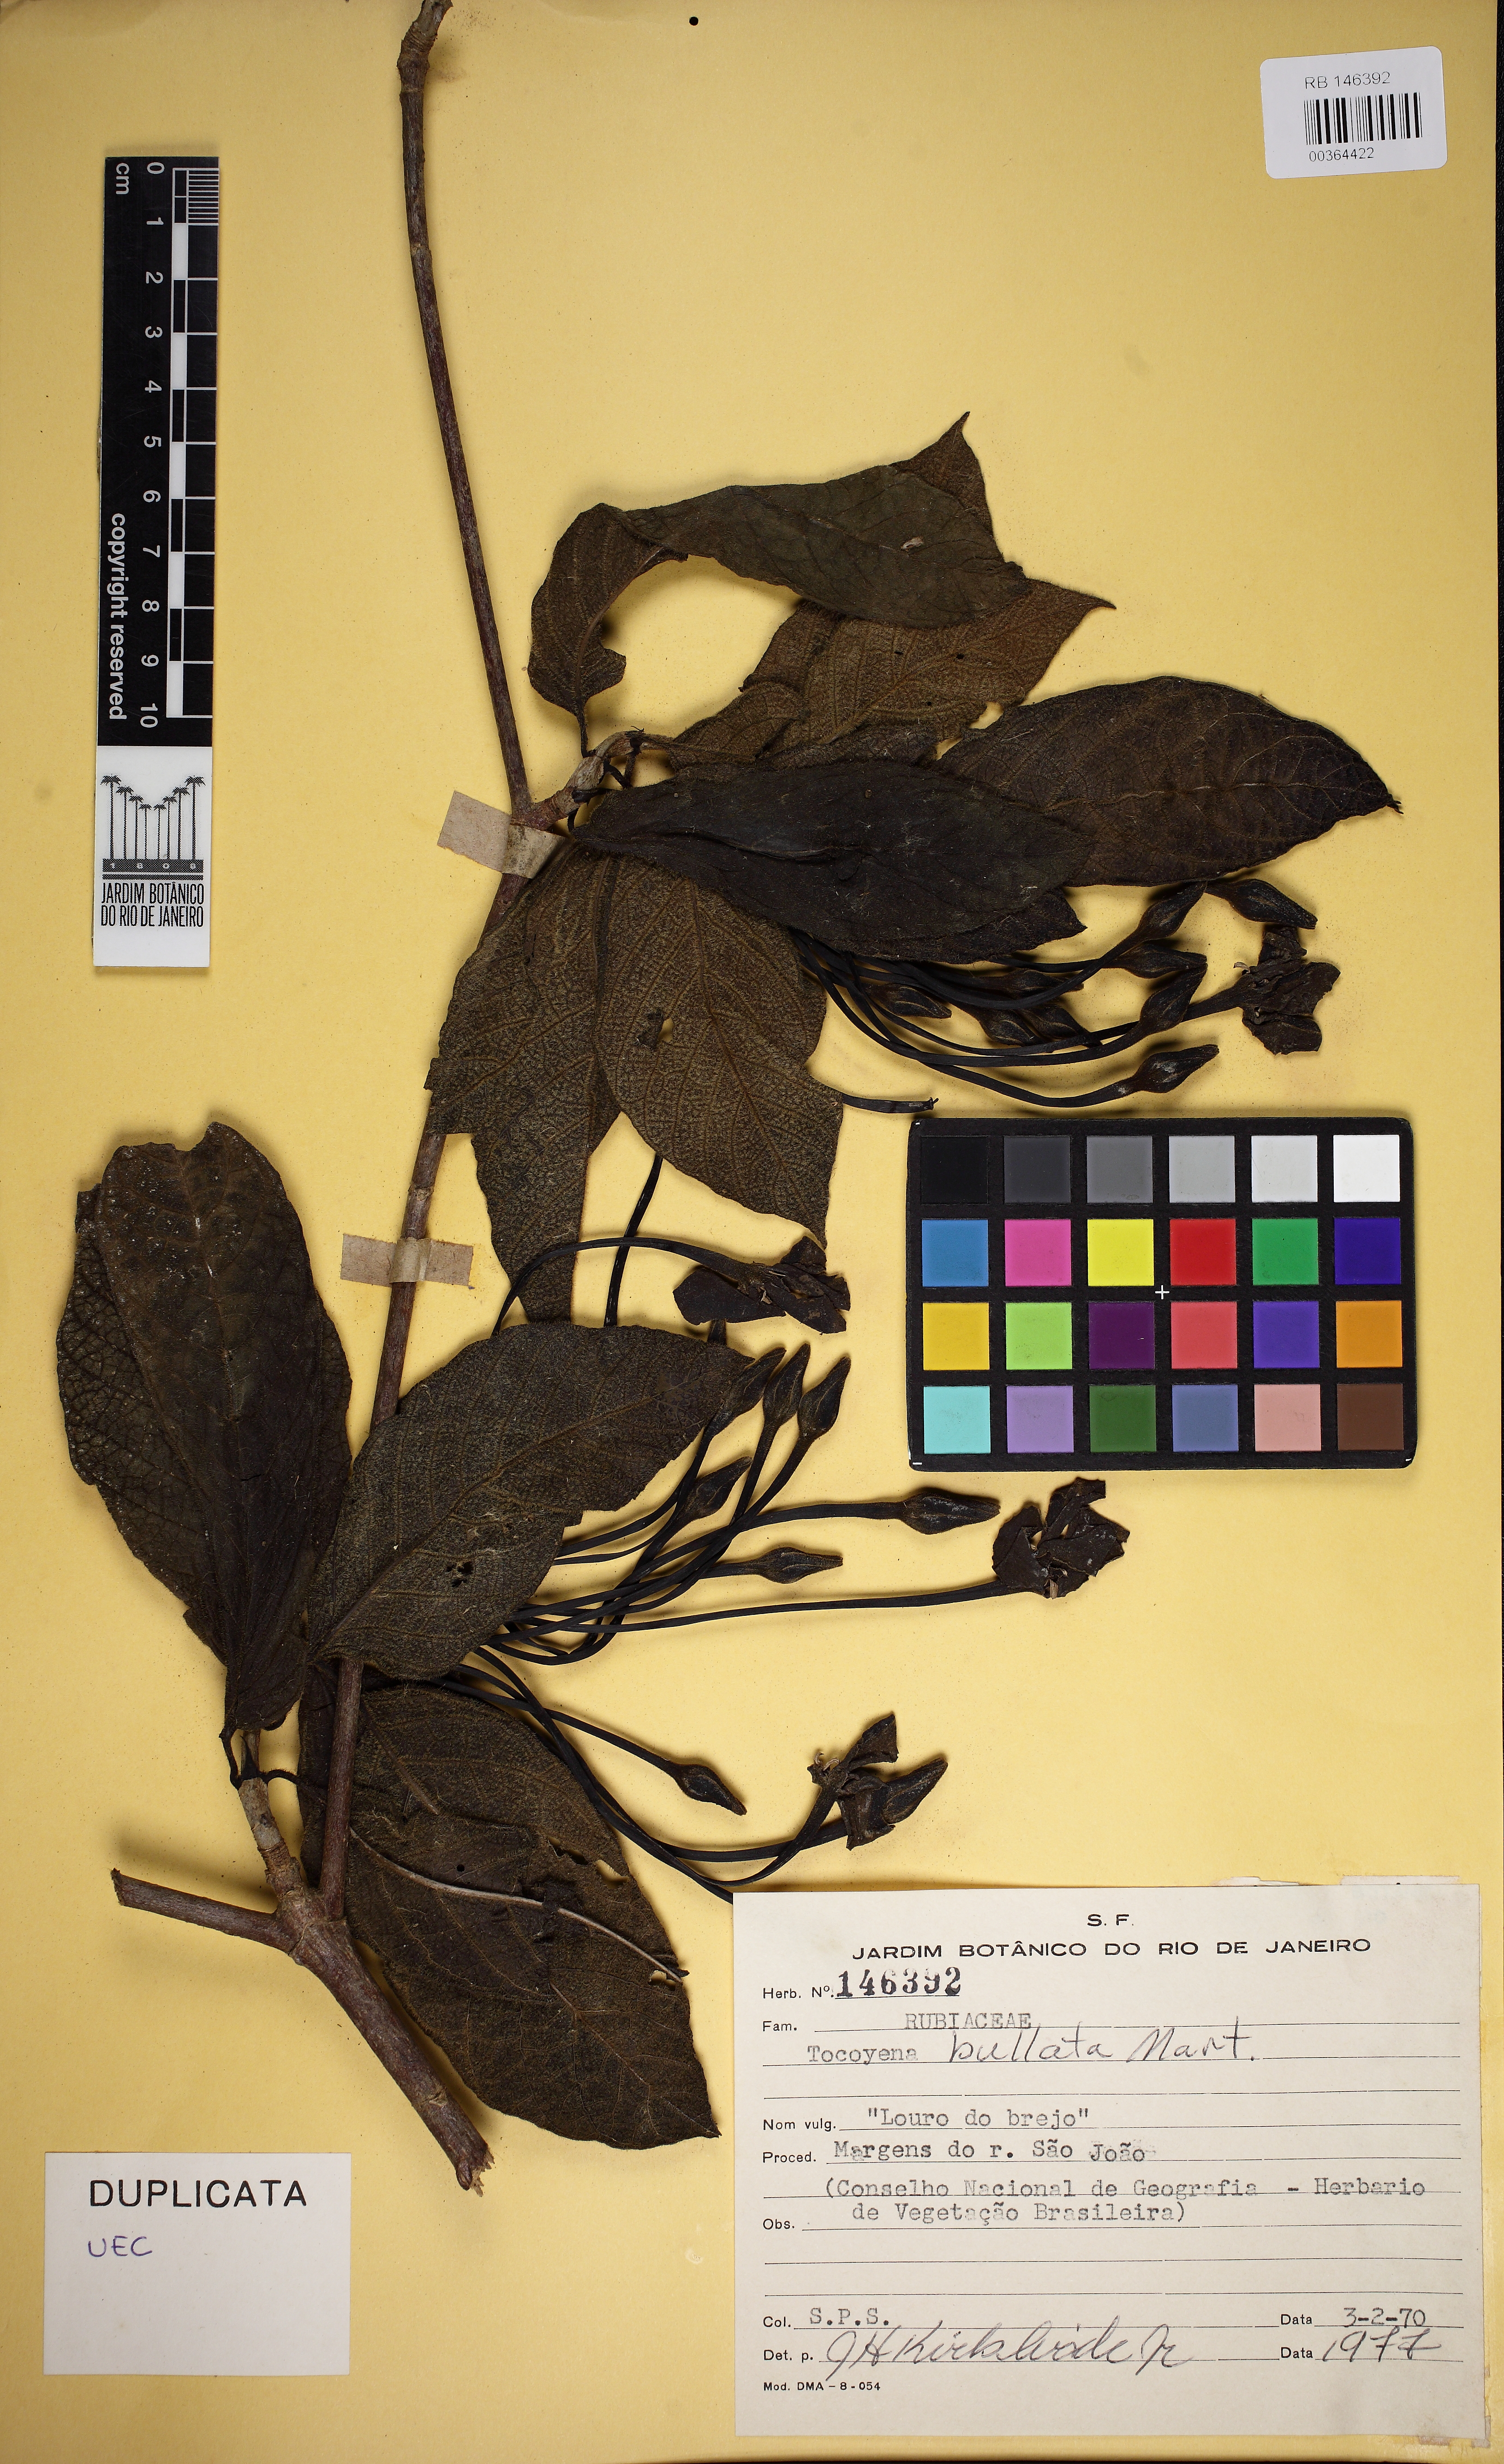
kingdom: Plantae
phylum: Tracheophyta
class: Magnoliopsida
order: Gentianales
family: Rubiaceae
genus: Tocoyena
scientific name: Tocoyena bullata
